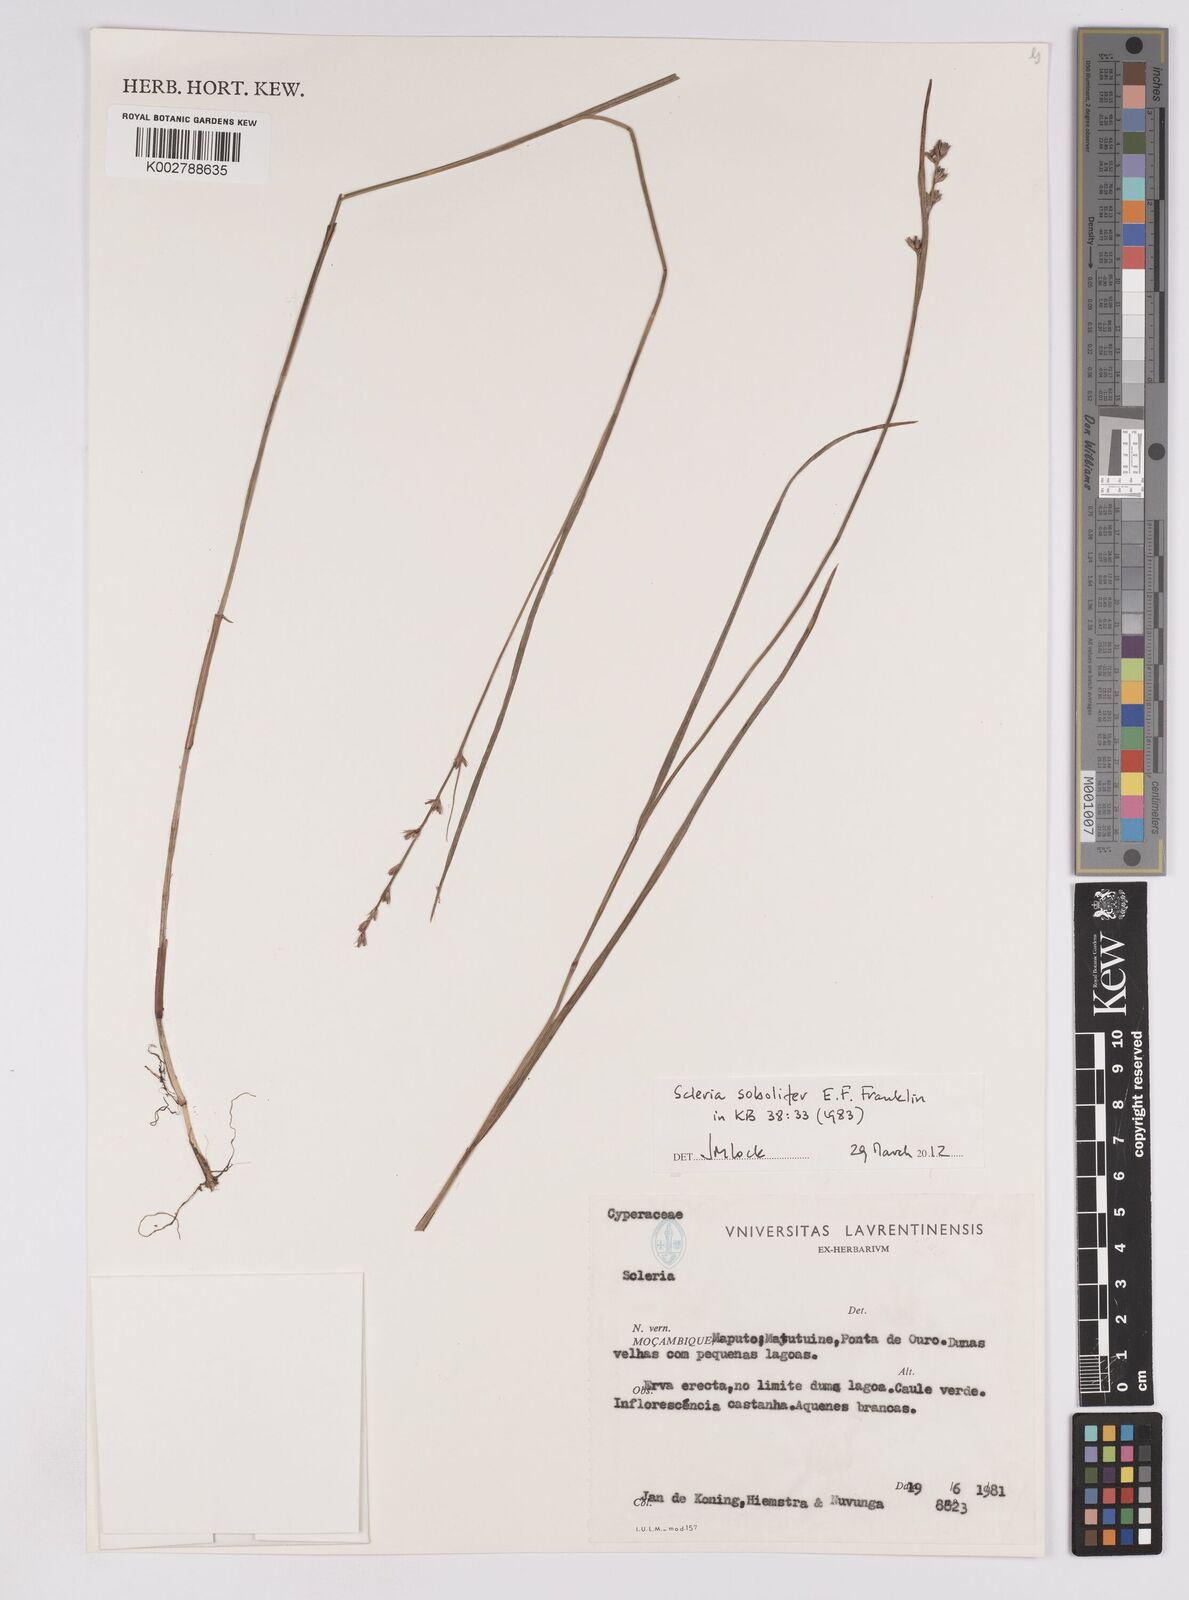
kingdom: Plantae
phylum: Tracheophyta
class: Liliopsida
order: Poales
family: Cyperaceae
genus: Scleria
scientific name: Scleria sobolifera
